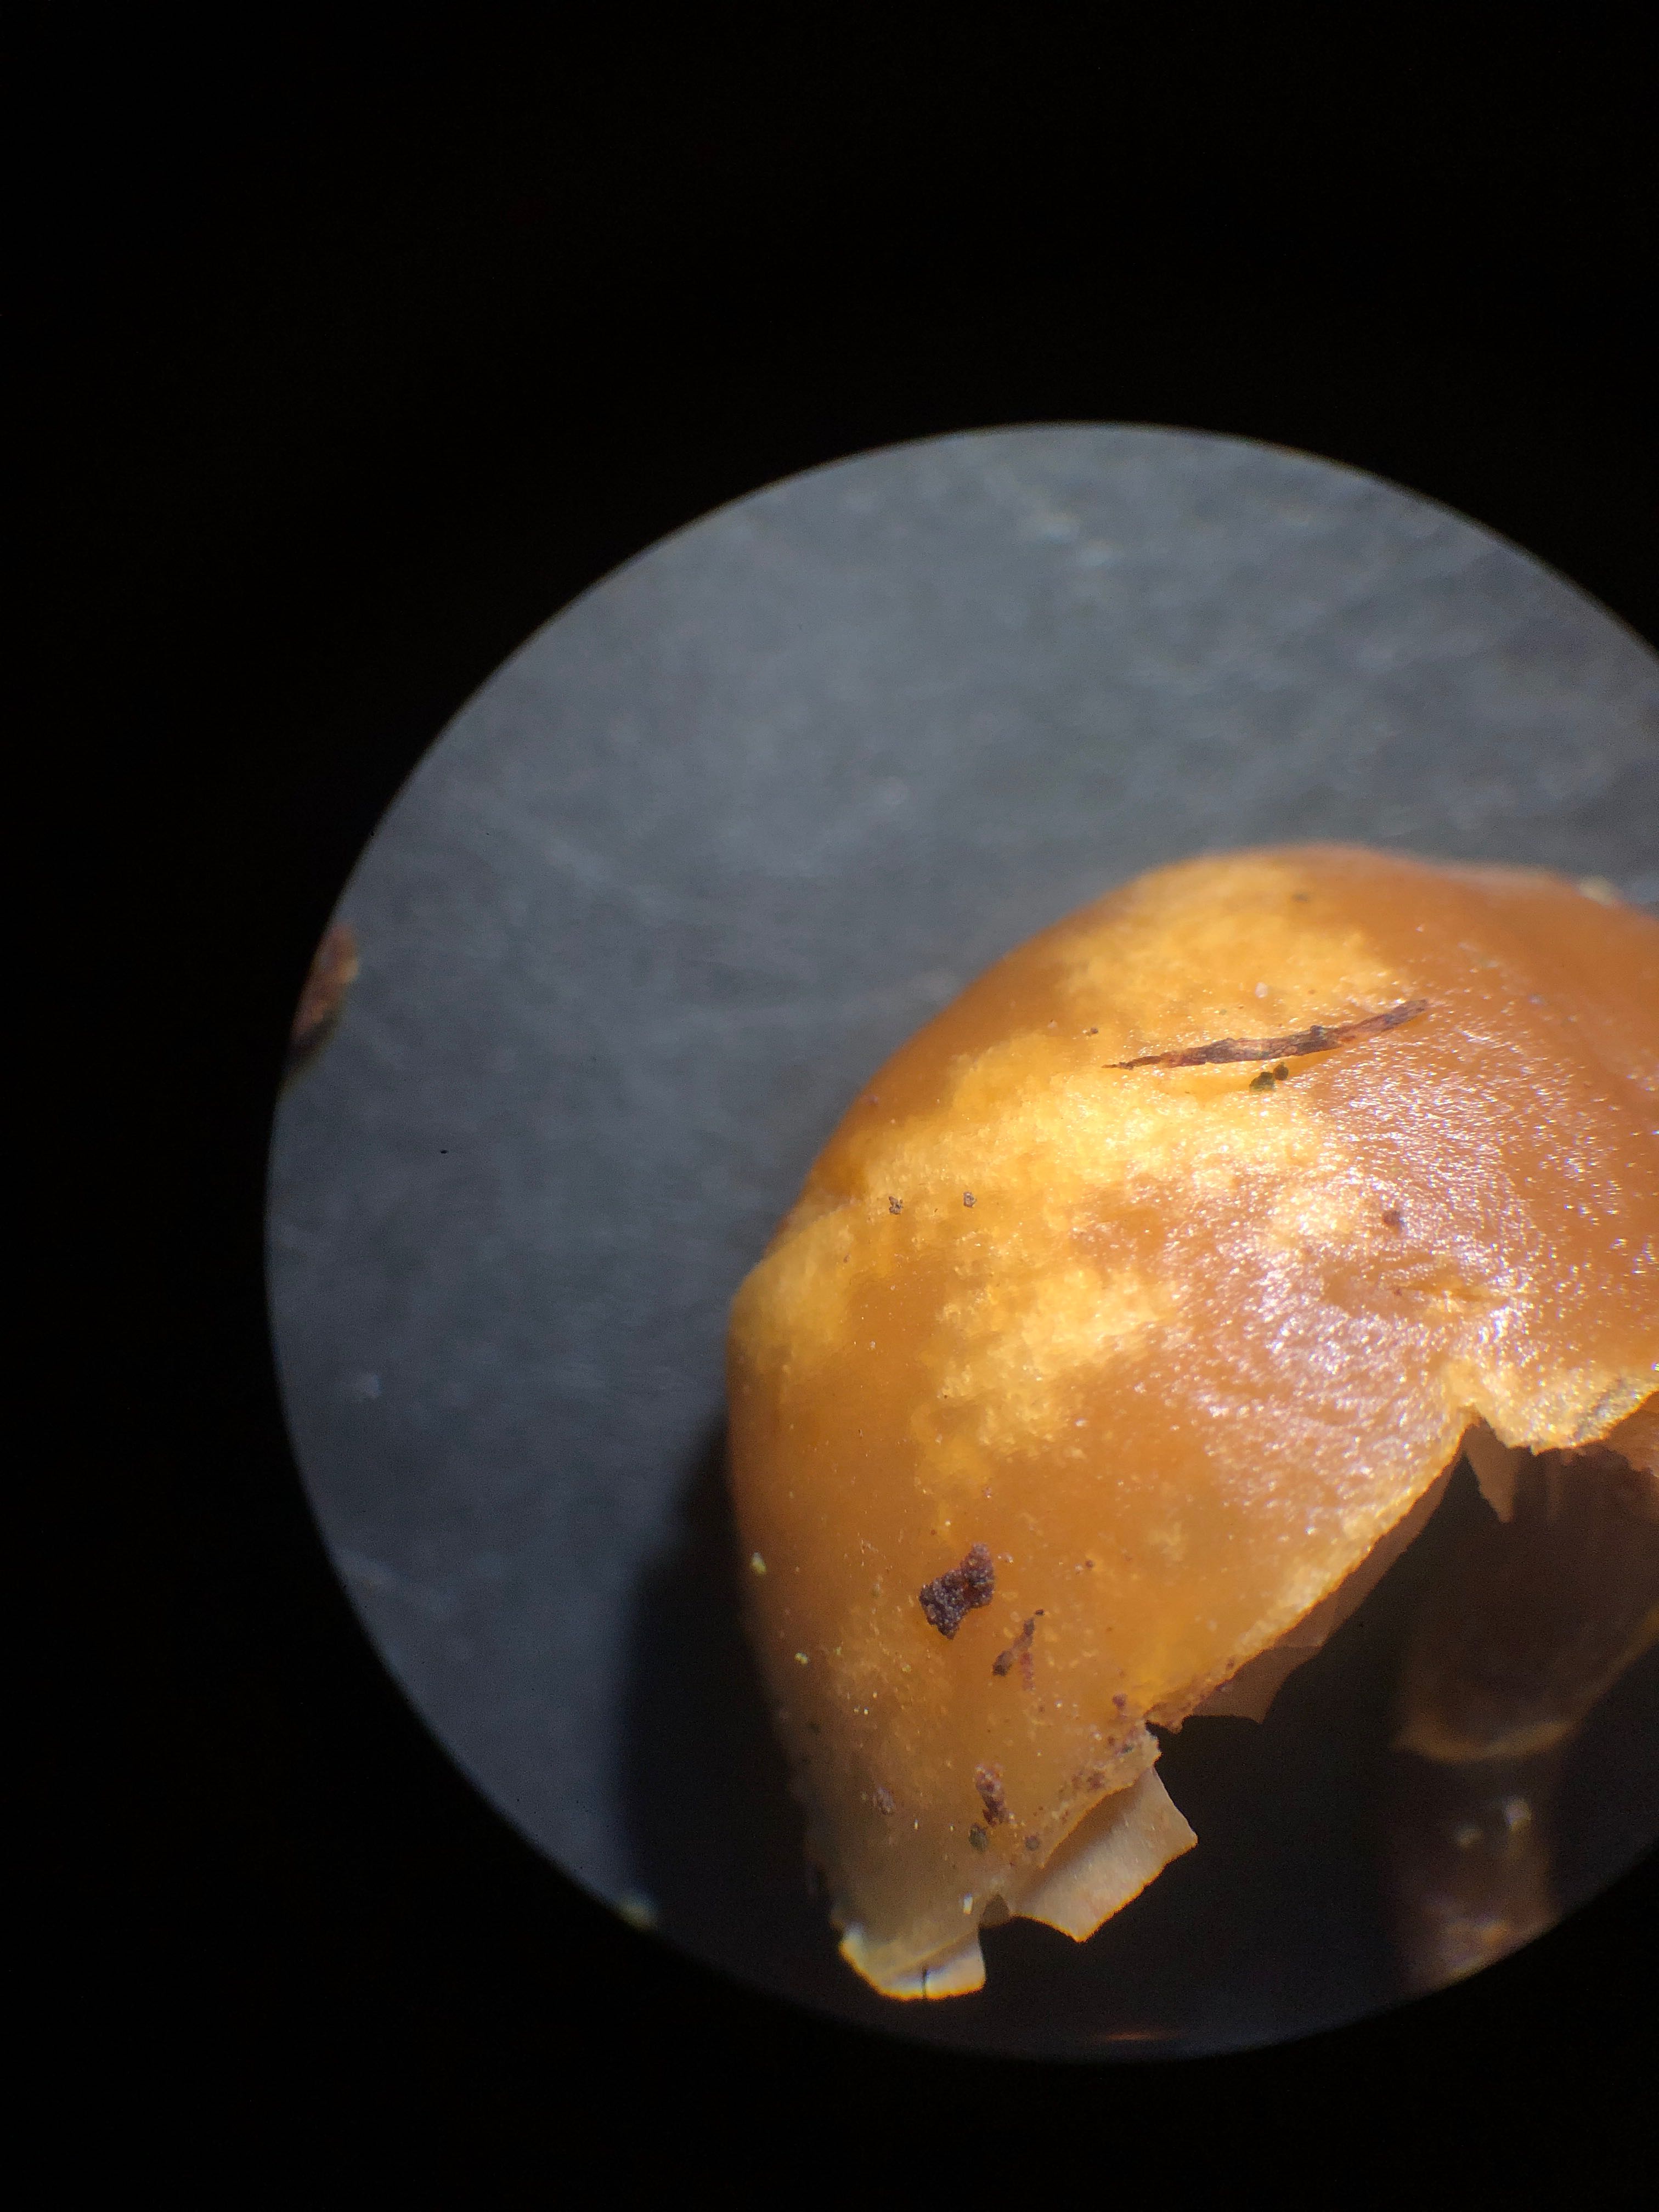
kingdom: Fungi
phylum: Basidiomycota
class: Agaricomycetes
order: Agaricales
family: Hymenogastraceae
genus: Galerina
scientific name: Galerina marginata
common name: randbæltet hjelmhat
